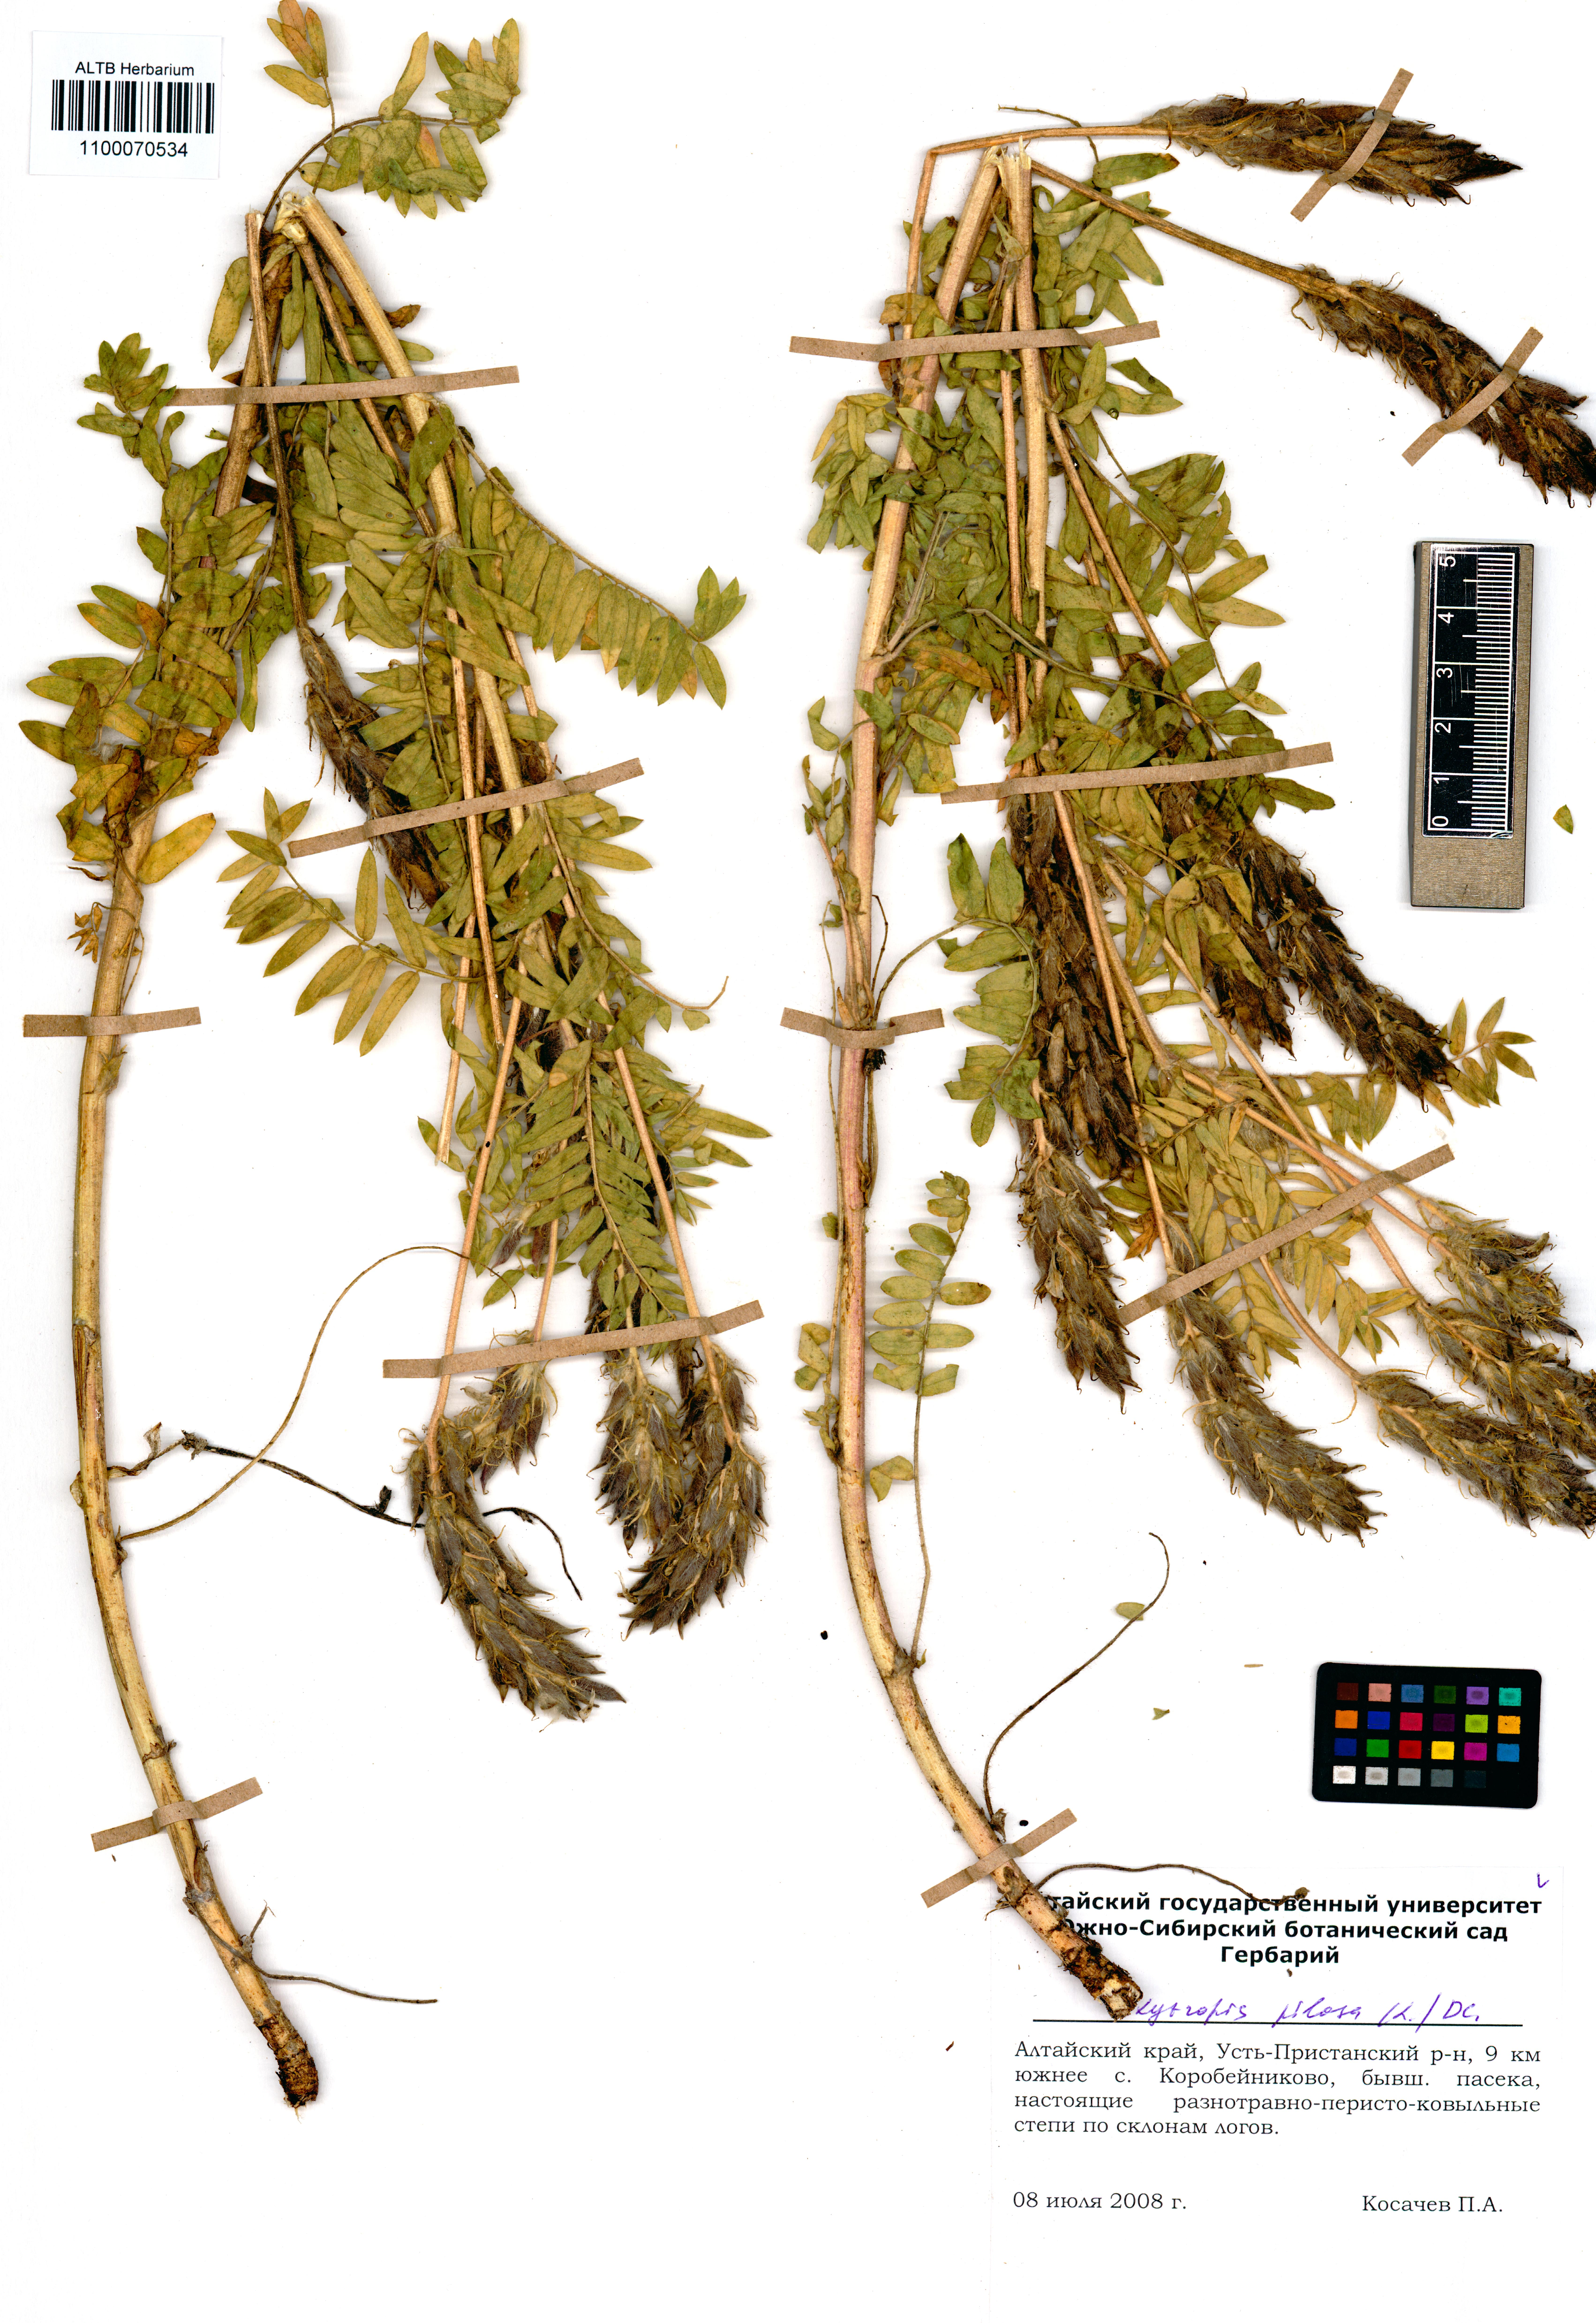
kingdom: Plantae
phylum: Tracheophyta
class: Magnoliopsida
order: Fabales
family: Fabaceae
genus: Oxytropis
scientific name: Oxytropis pilosa
